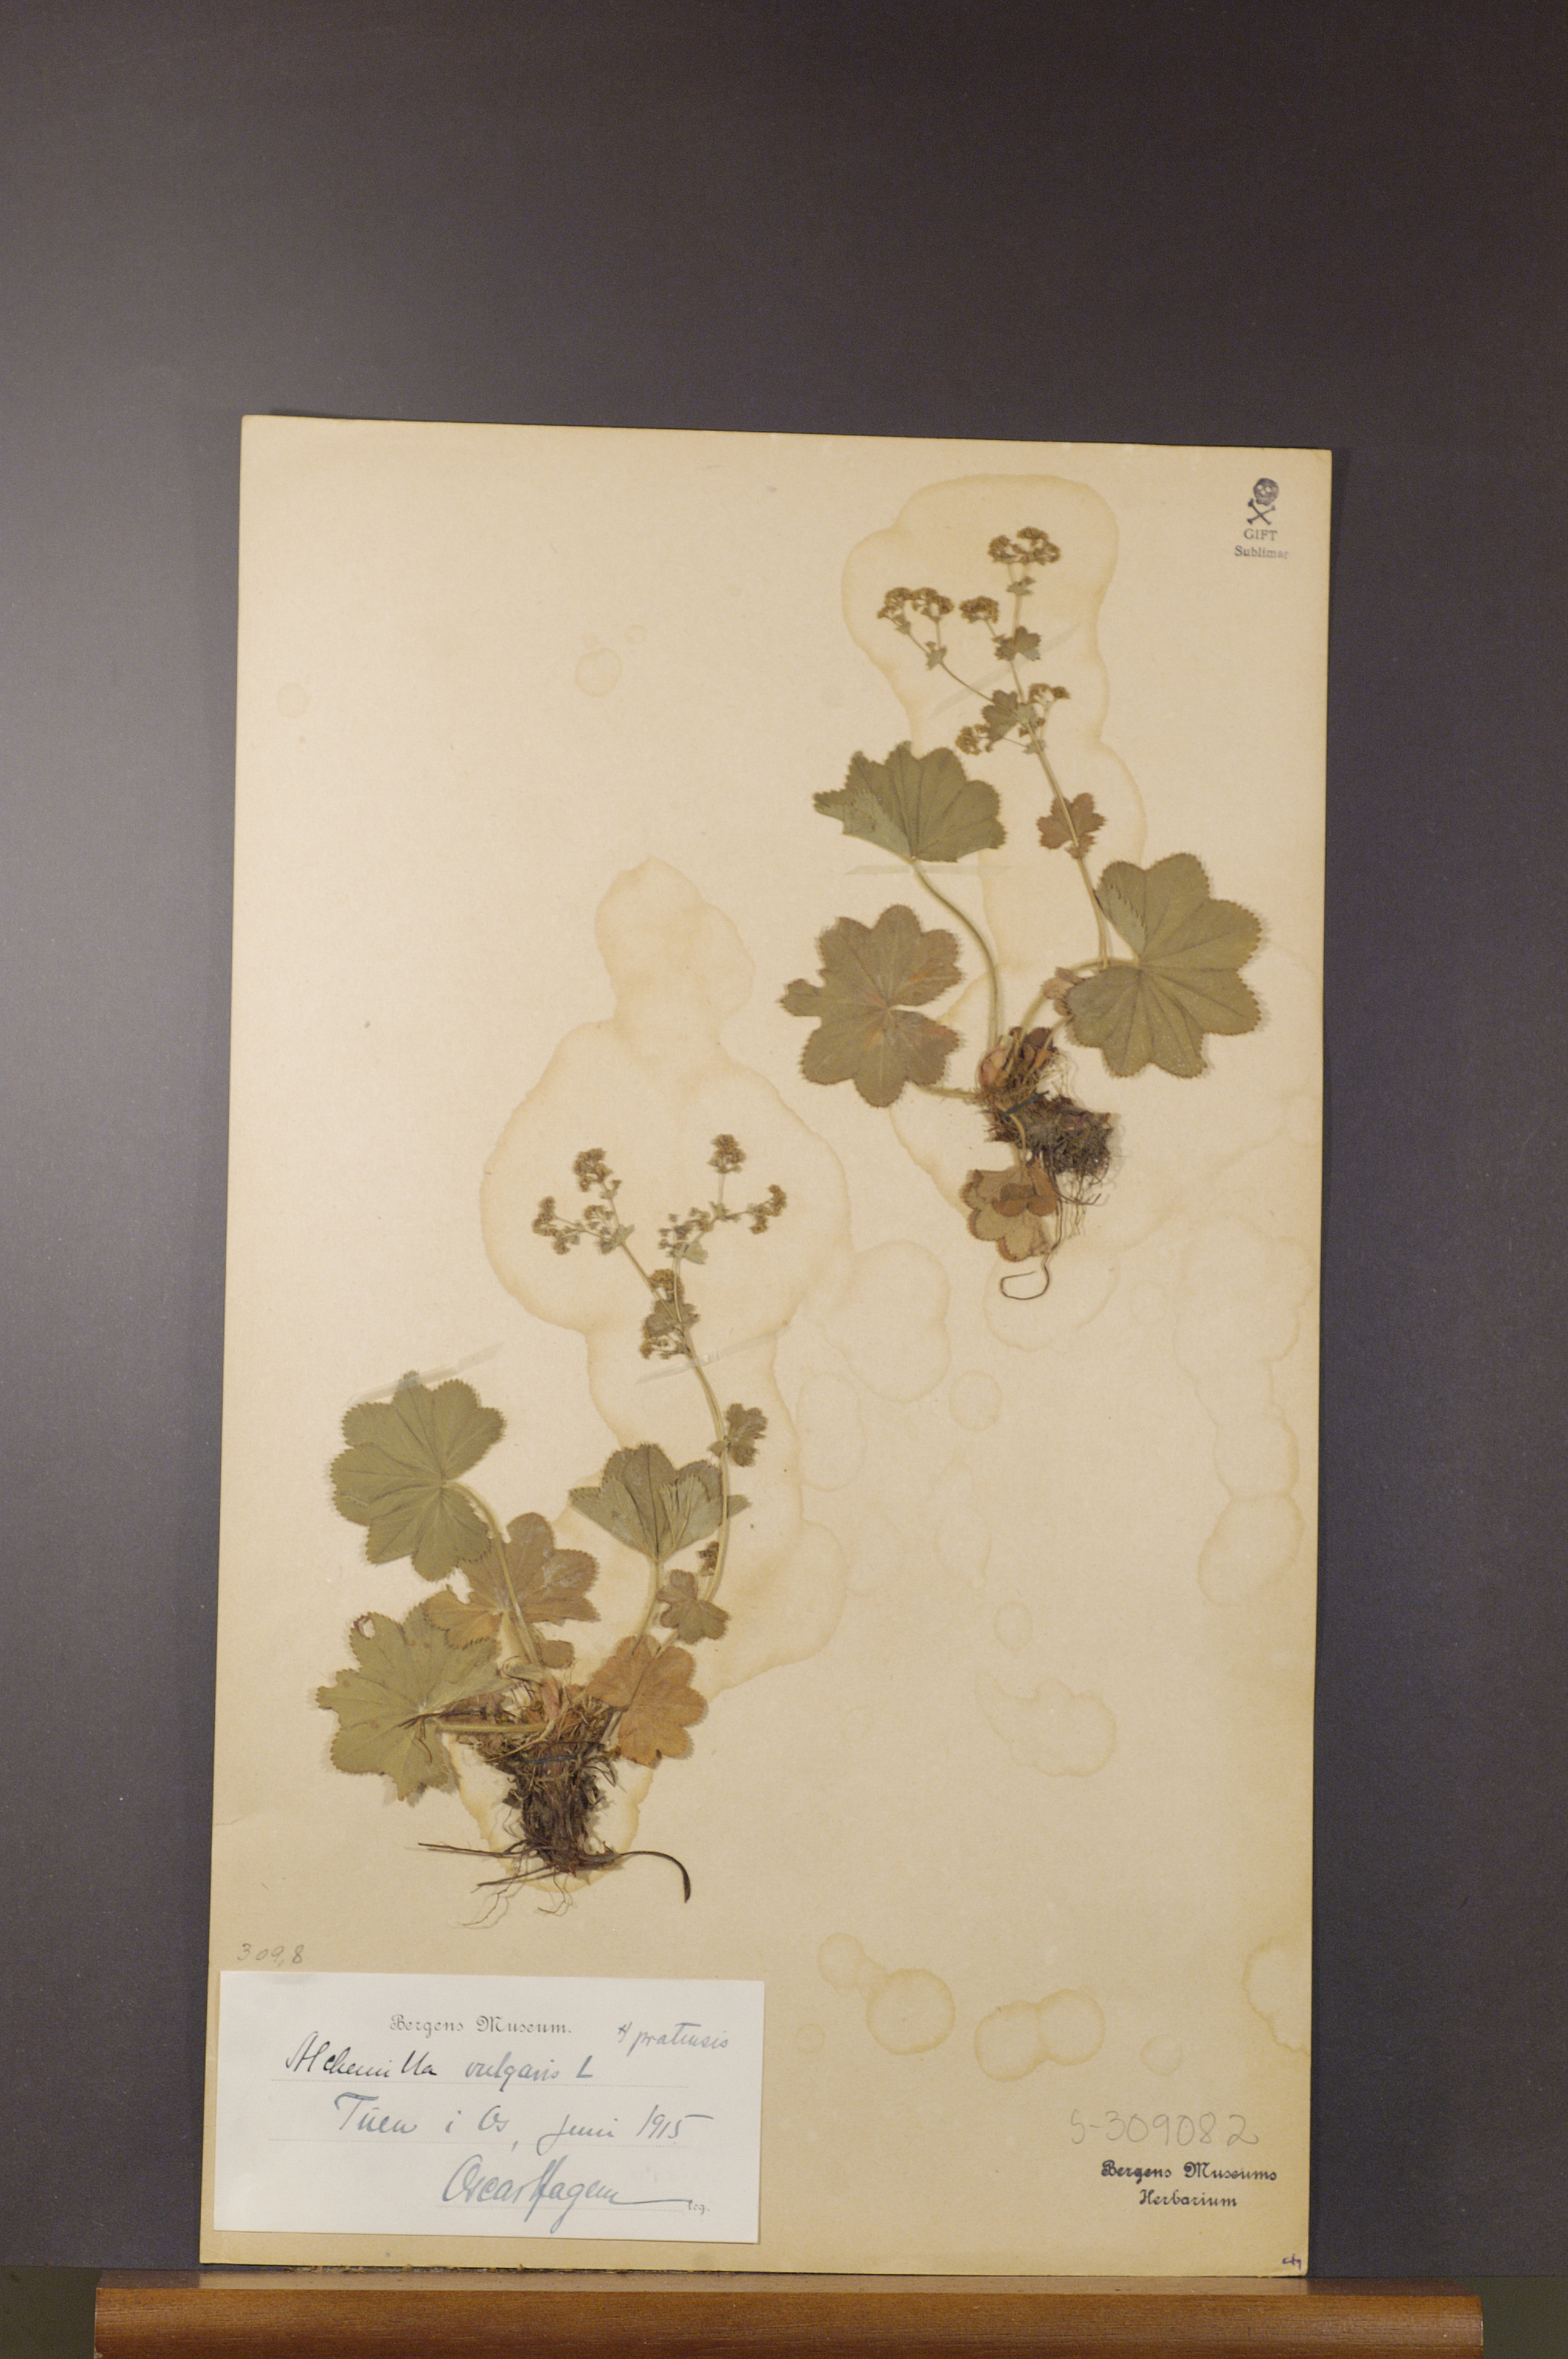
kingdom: Plantae
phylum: Tracheophyta
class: Magnoliopsida
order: Rosales
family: Rosaceae
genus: Alchemilla
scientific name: Alchemilla xanthochlora
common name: Intermediate lady's-mantle
